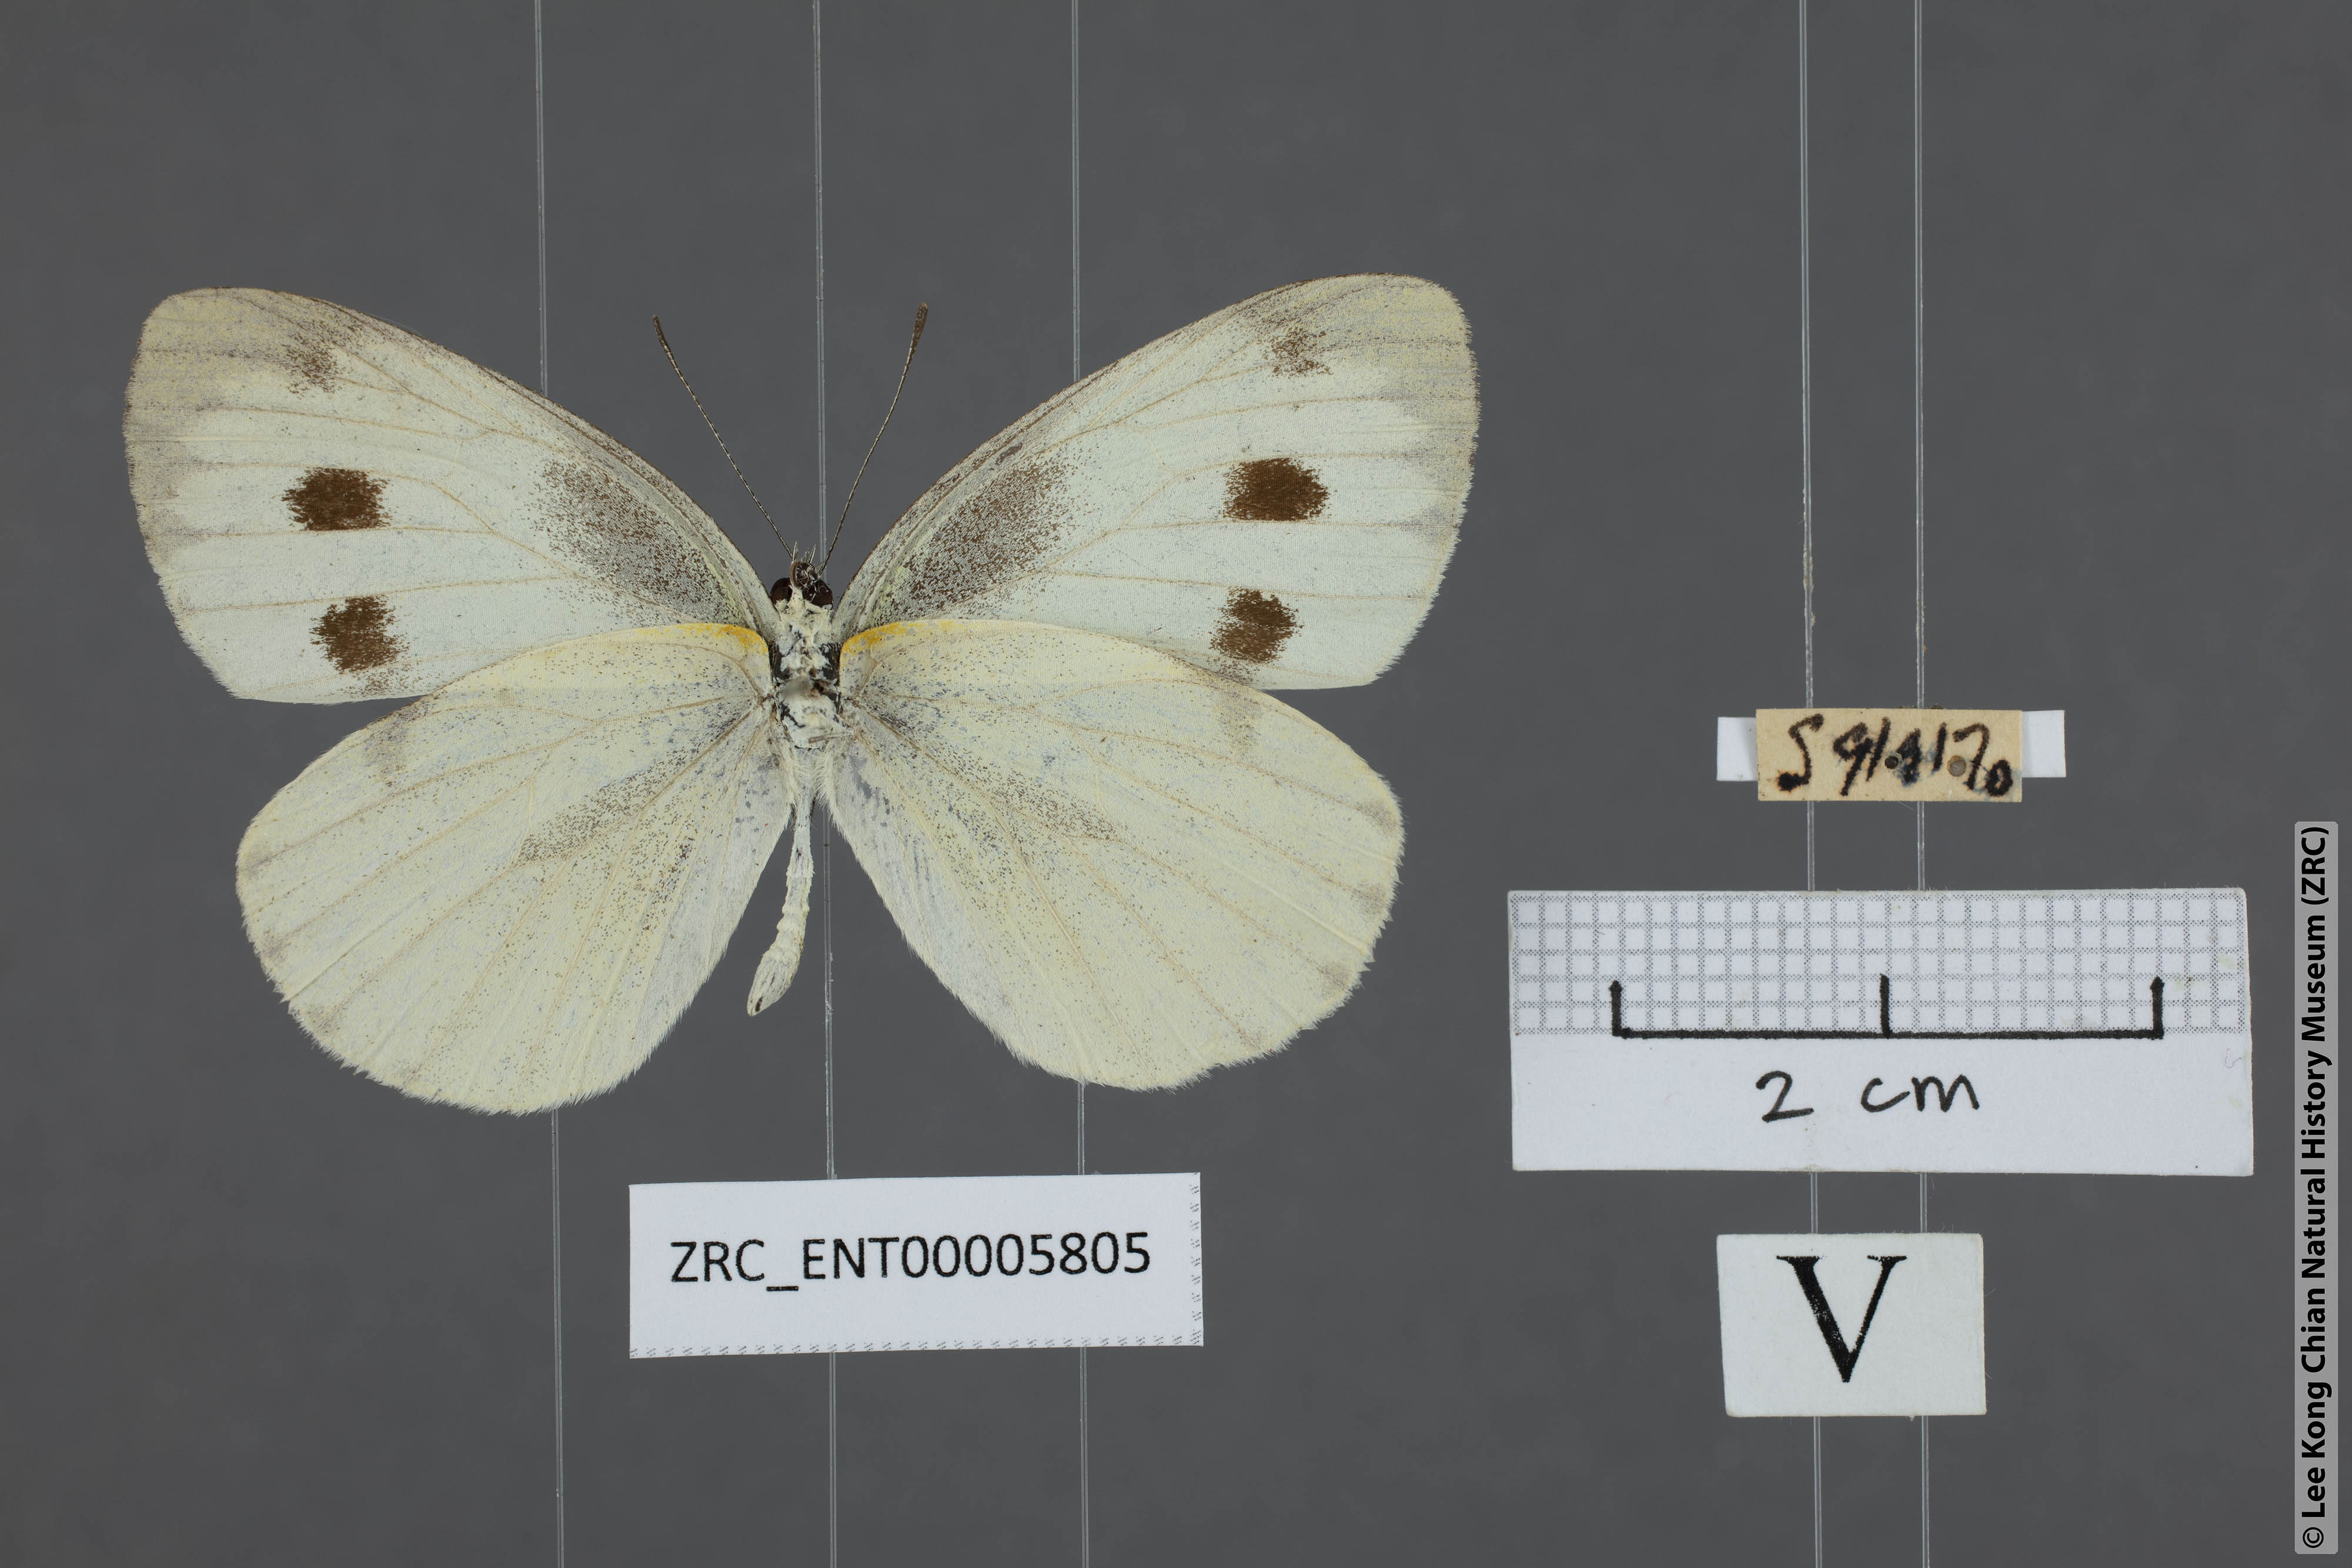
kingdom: Animalia
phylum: Arthropoda
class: Insecta
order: Lepidoptera
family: Pieridae
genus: Pieris
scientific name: Pieris canidia
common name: Indian cabbage white
